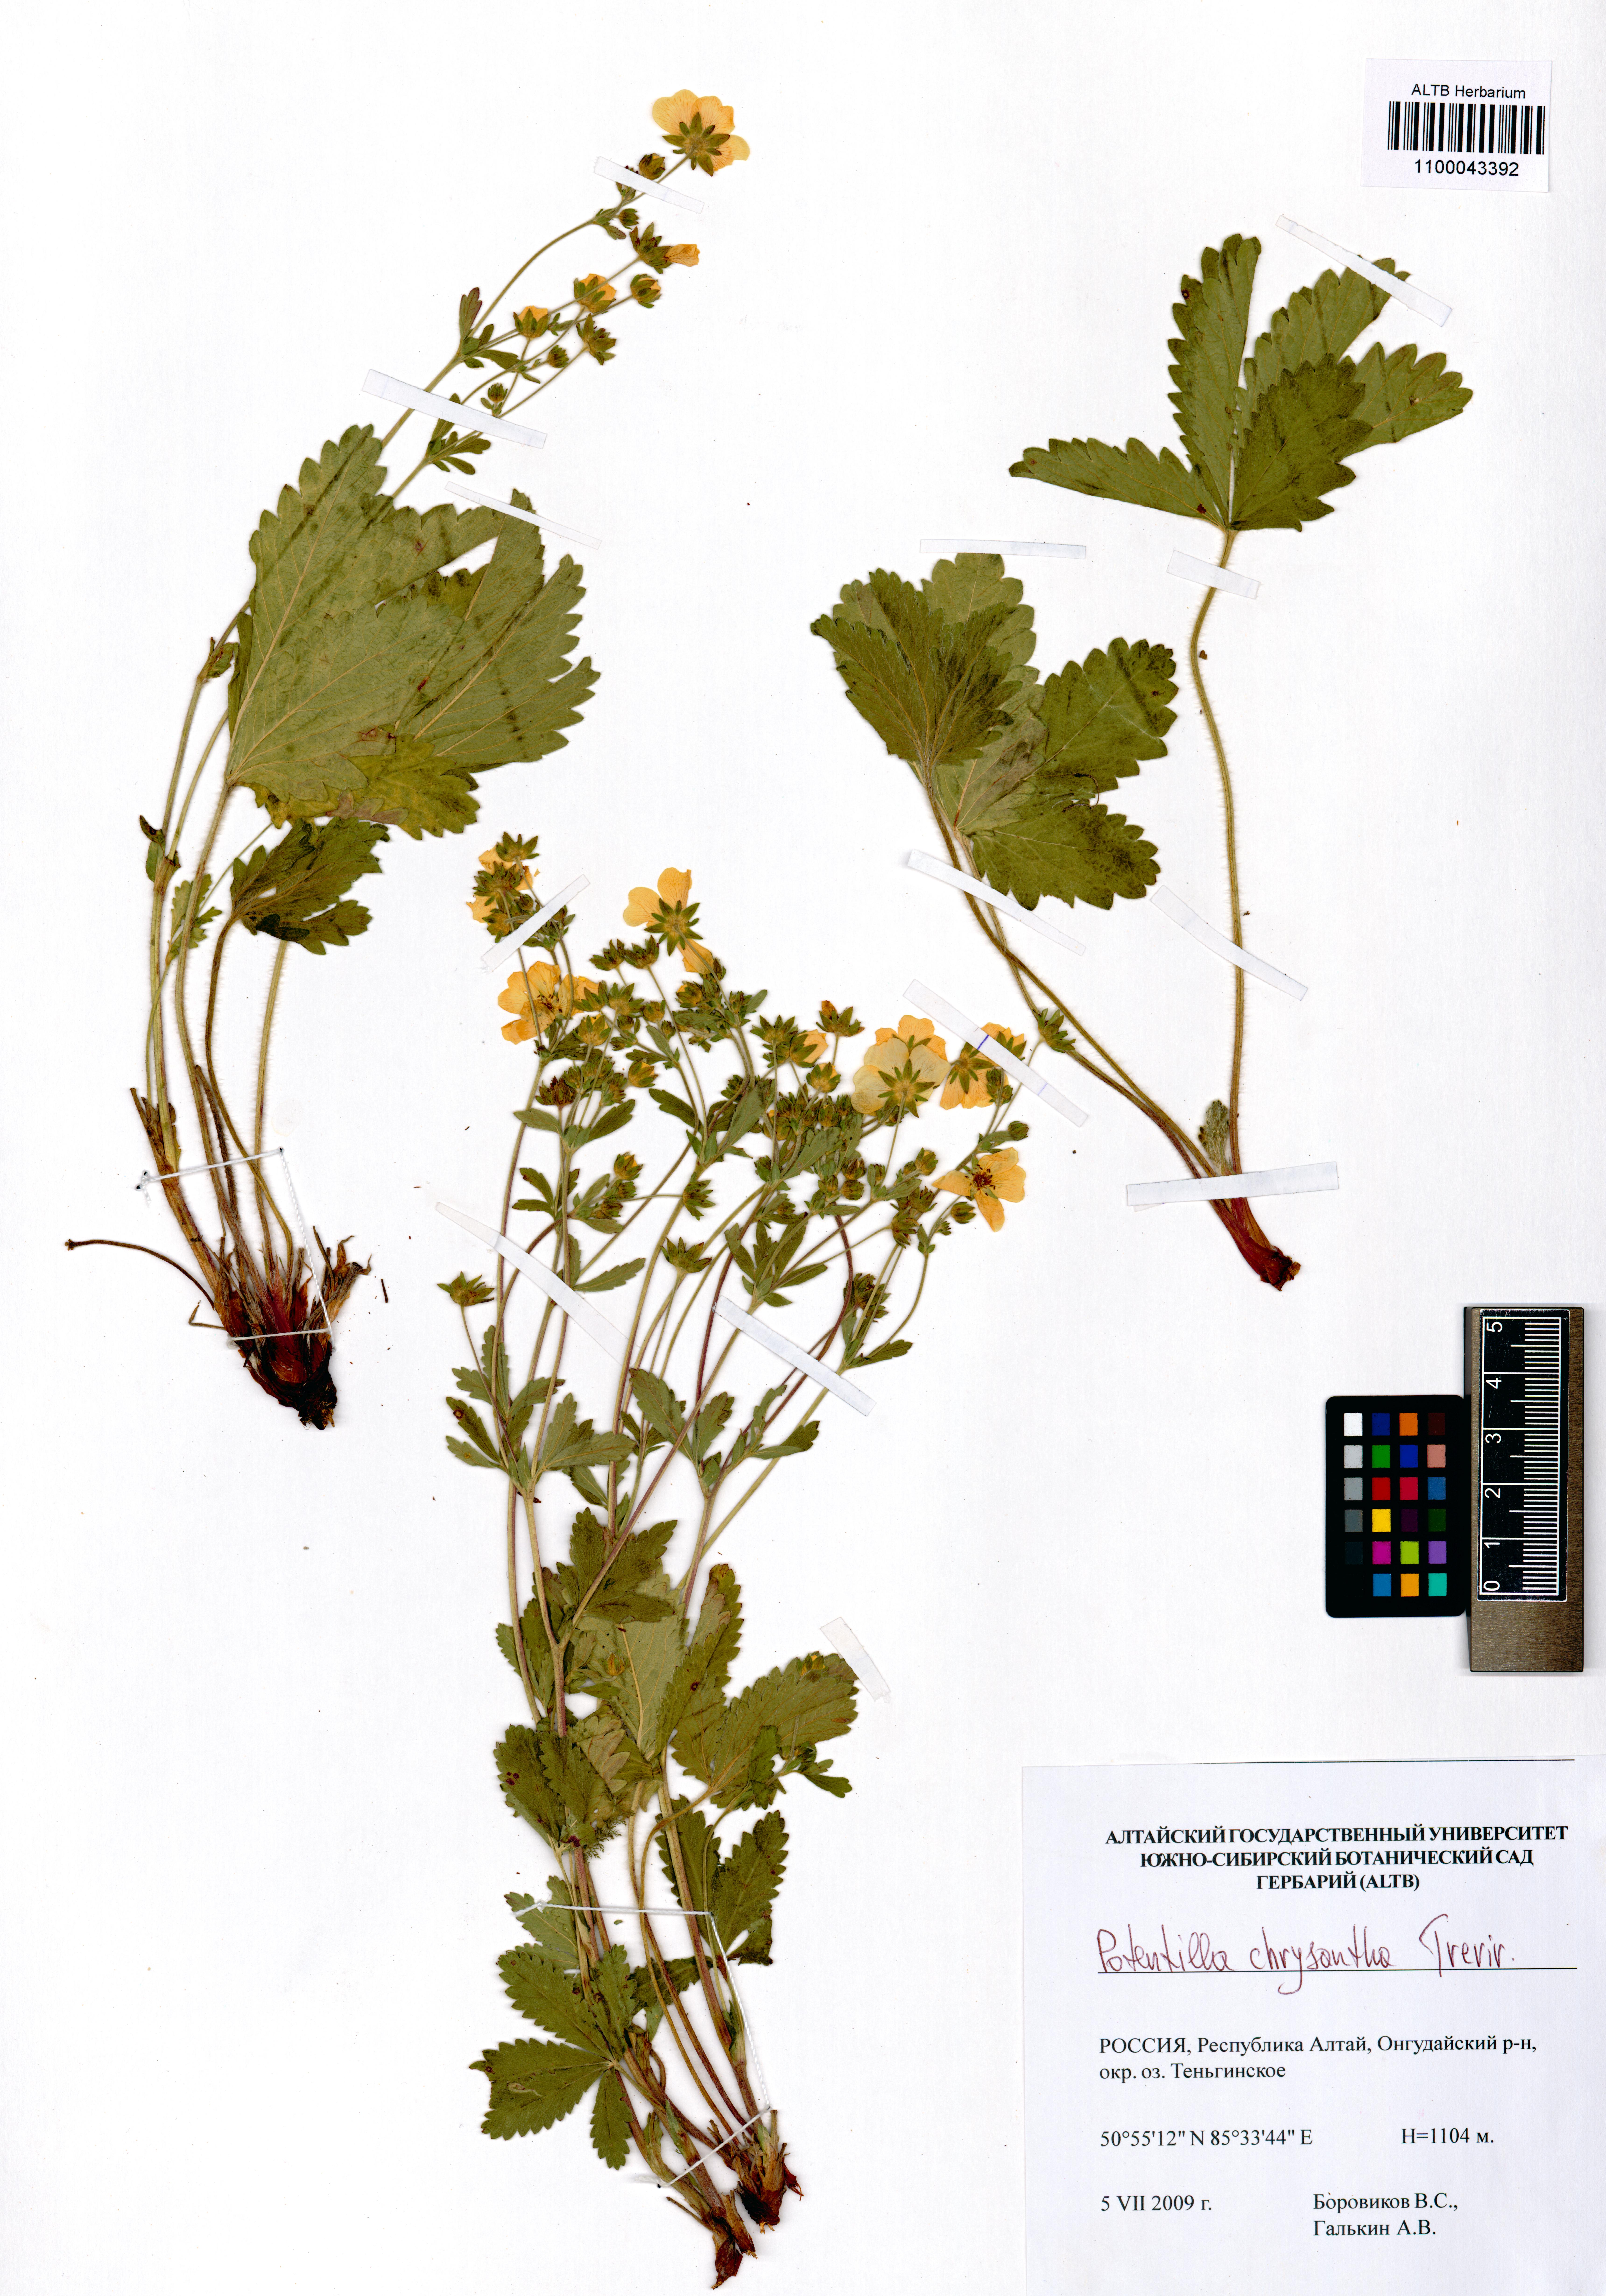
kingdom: Plantae
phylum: Tracheophyta
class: Magnoliopsida
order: Rosales
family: Rosaceae
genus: Potentilla
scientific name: Potentilla chrysantha
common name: Thuringian cinquefoil
